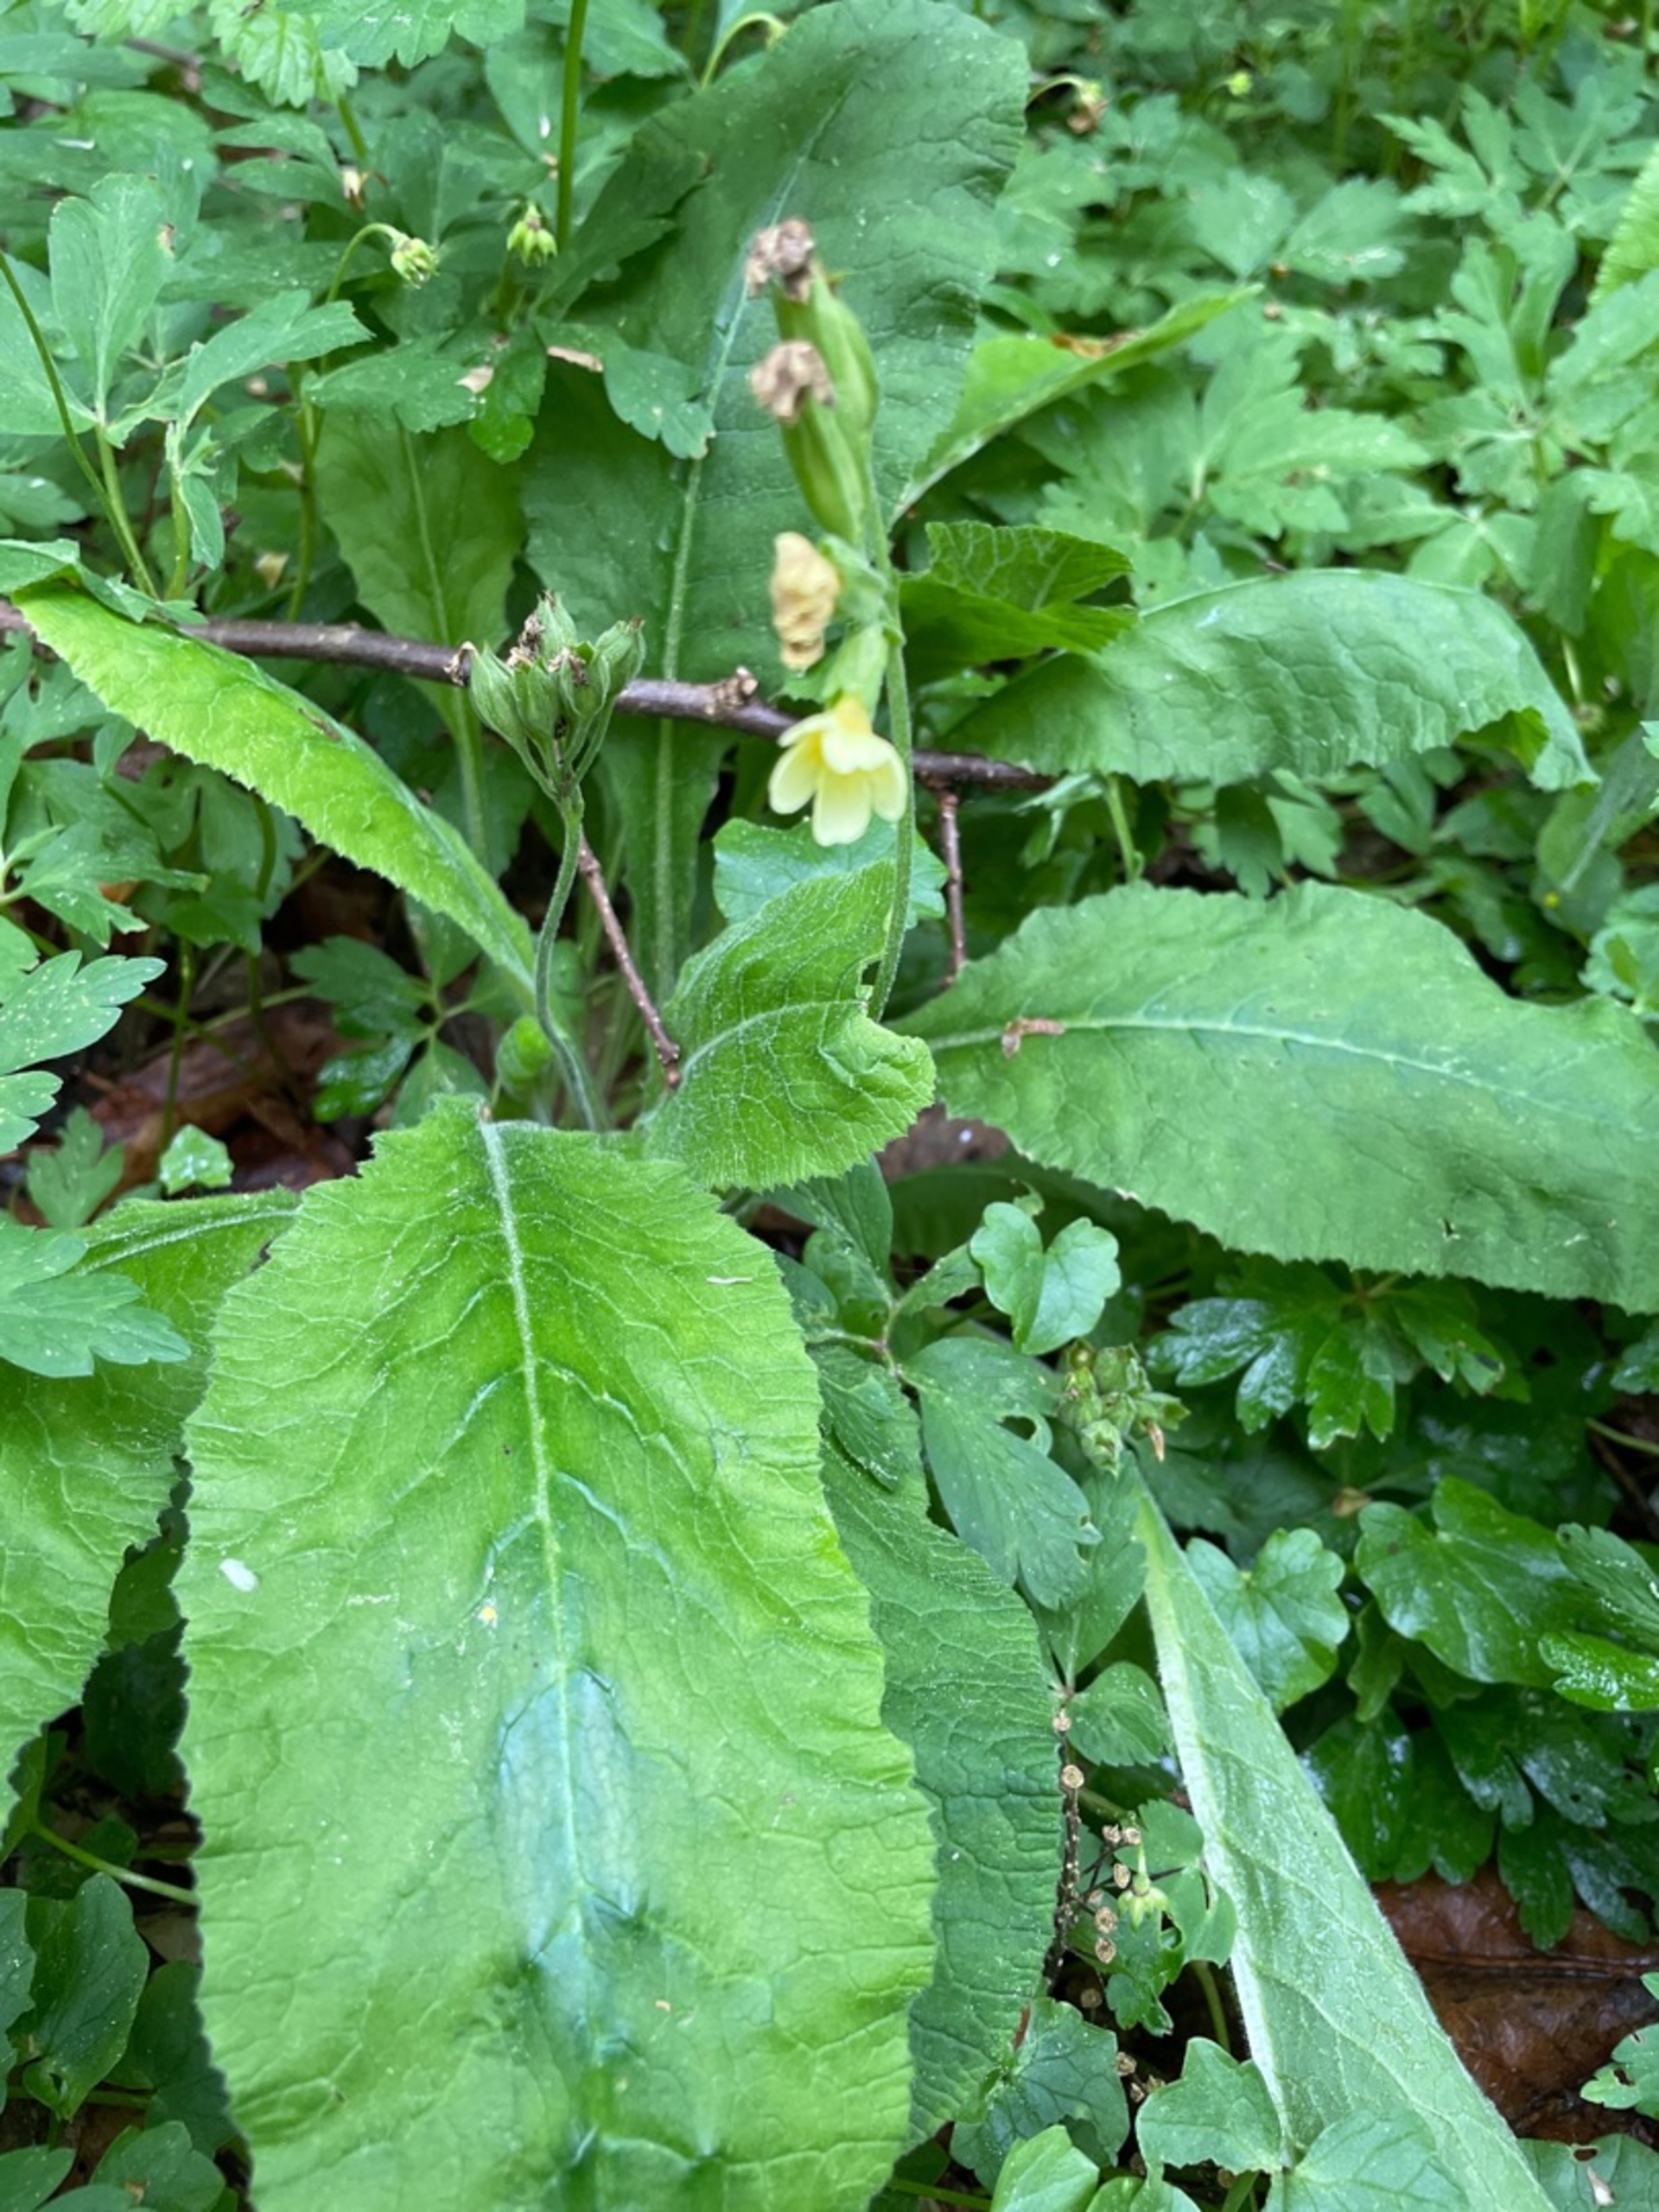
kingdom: Plantae
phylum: Tracheophyta
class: Magnoliopsida
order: Ericales
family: Primulaceae
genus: Primula
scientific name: Primula elatior
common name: Fladkravet kodriver
